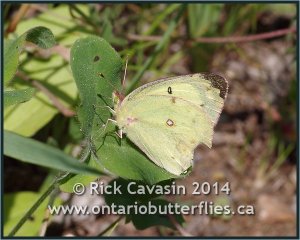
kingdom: Animalia
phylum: Arthropoda
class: Insecta
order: Lepidoptera
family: Pieridae
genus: Colias
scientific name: Colias philodice
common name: Clouded Sulphur
